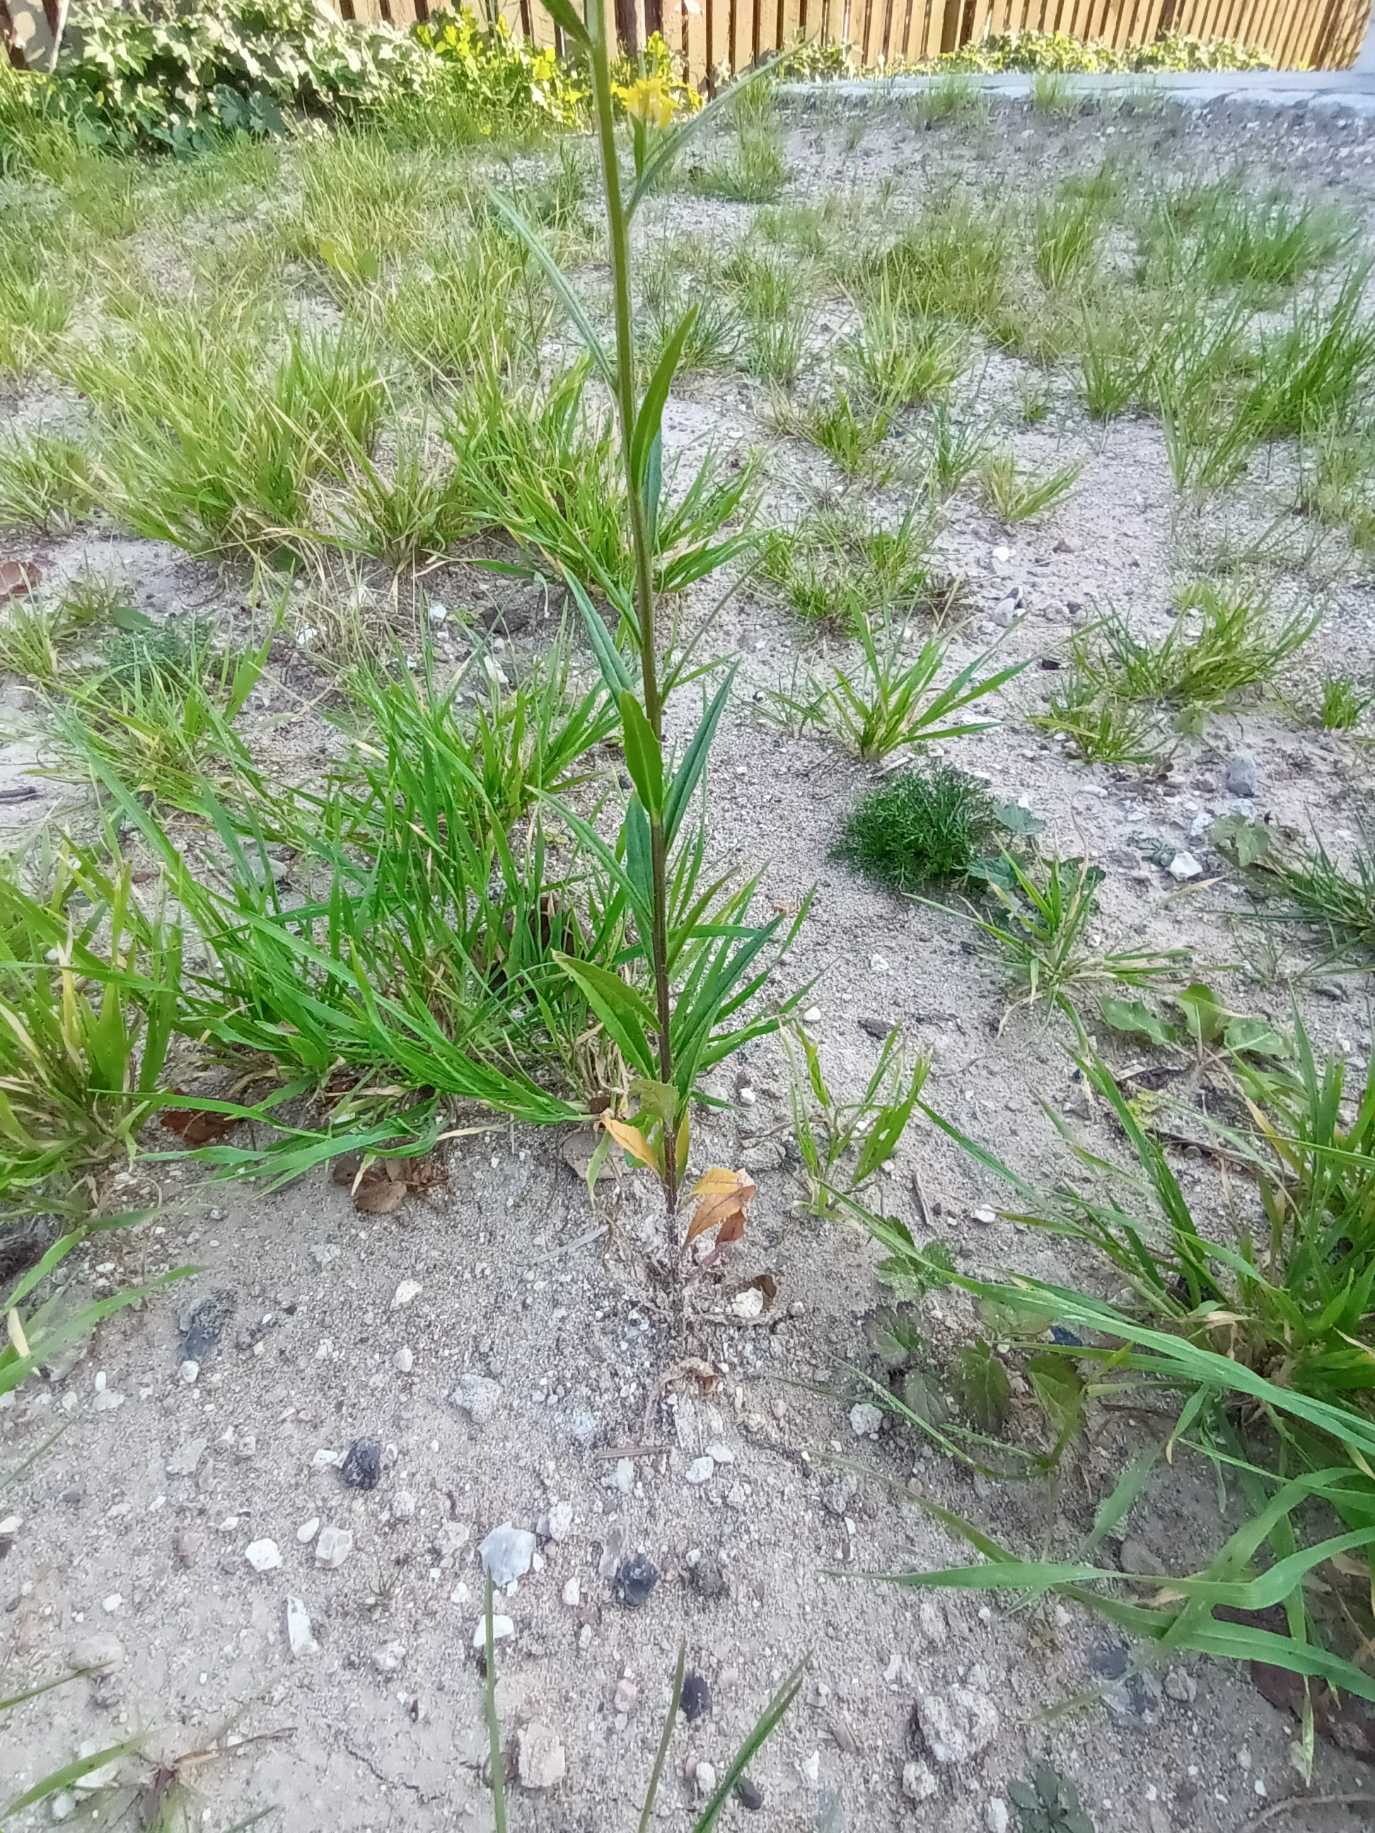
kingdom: Plantae
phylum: Tracheophyta
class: Magnoliopsida
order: Brassicales
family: Brassicaceae
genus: Erysimum
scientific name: Erysimum cheiranthoides
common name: Gyldenlak-hjørneklap
